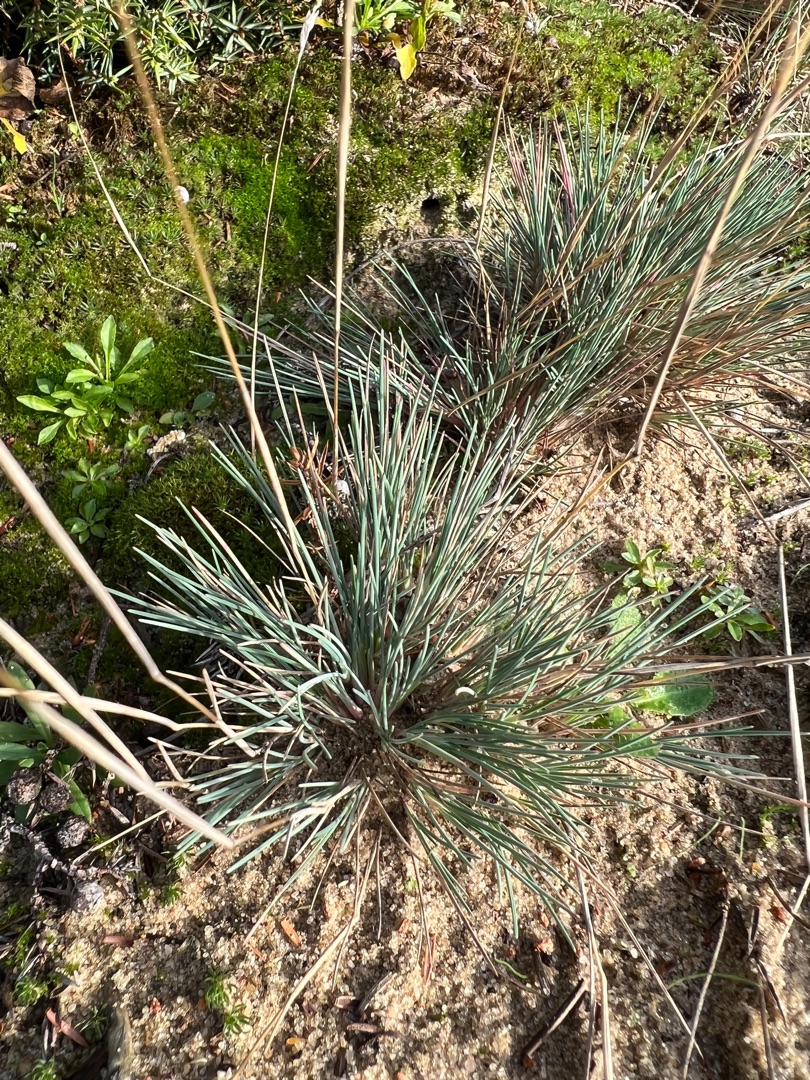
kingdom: Plantae
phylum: Tracheophyta
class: Liliopsida
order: Poales
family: Poaceae
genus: Corynephorus
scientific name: Corynephorus canescens
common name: Sandskæg
